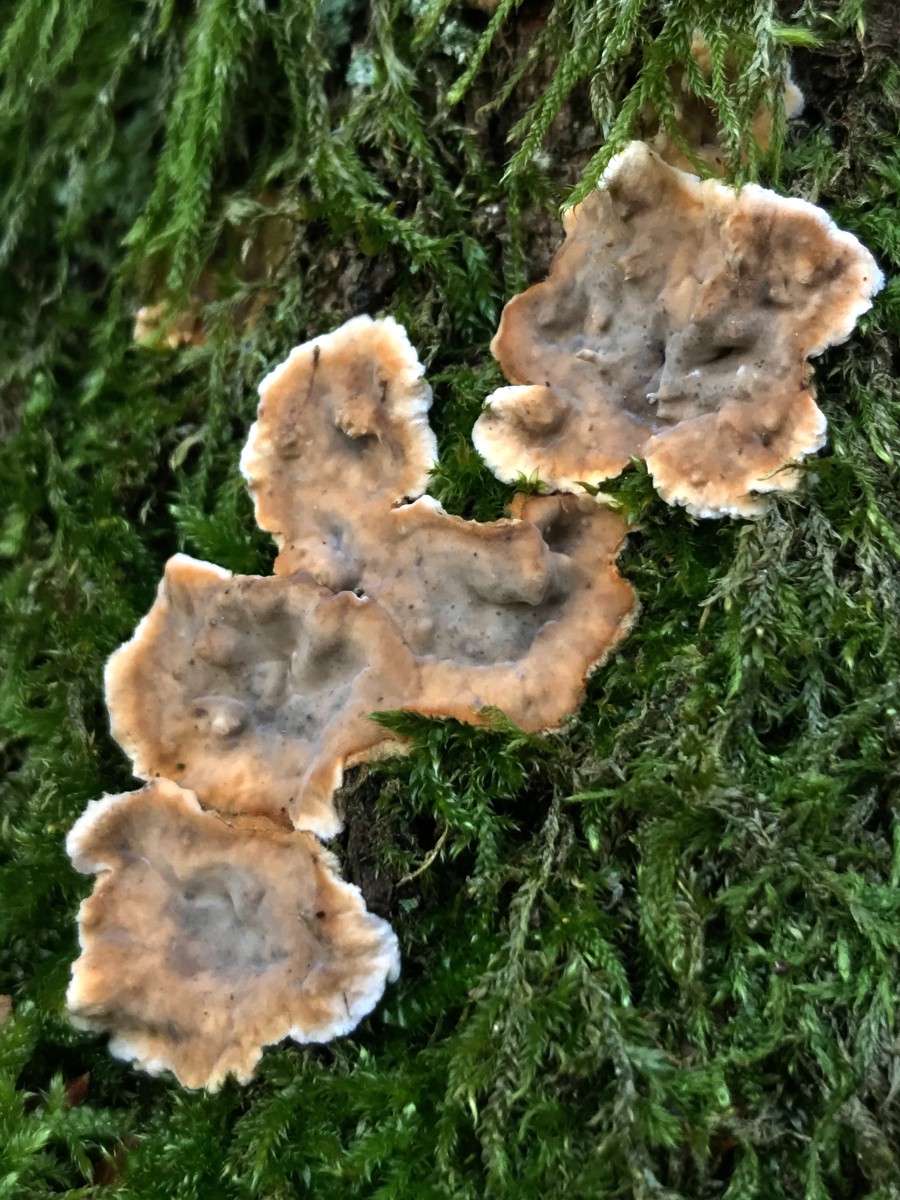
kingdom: Fungi
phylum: Basidiomycota
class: Agaricomycetes
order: Russulales
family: Stereaceae
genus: Stereum
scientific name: Stereum rugosum
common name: rynket lædersvamp
